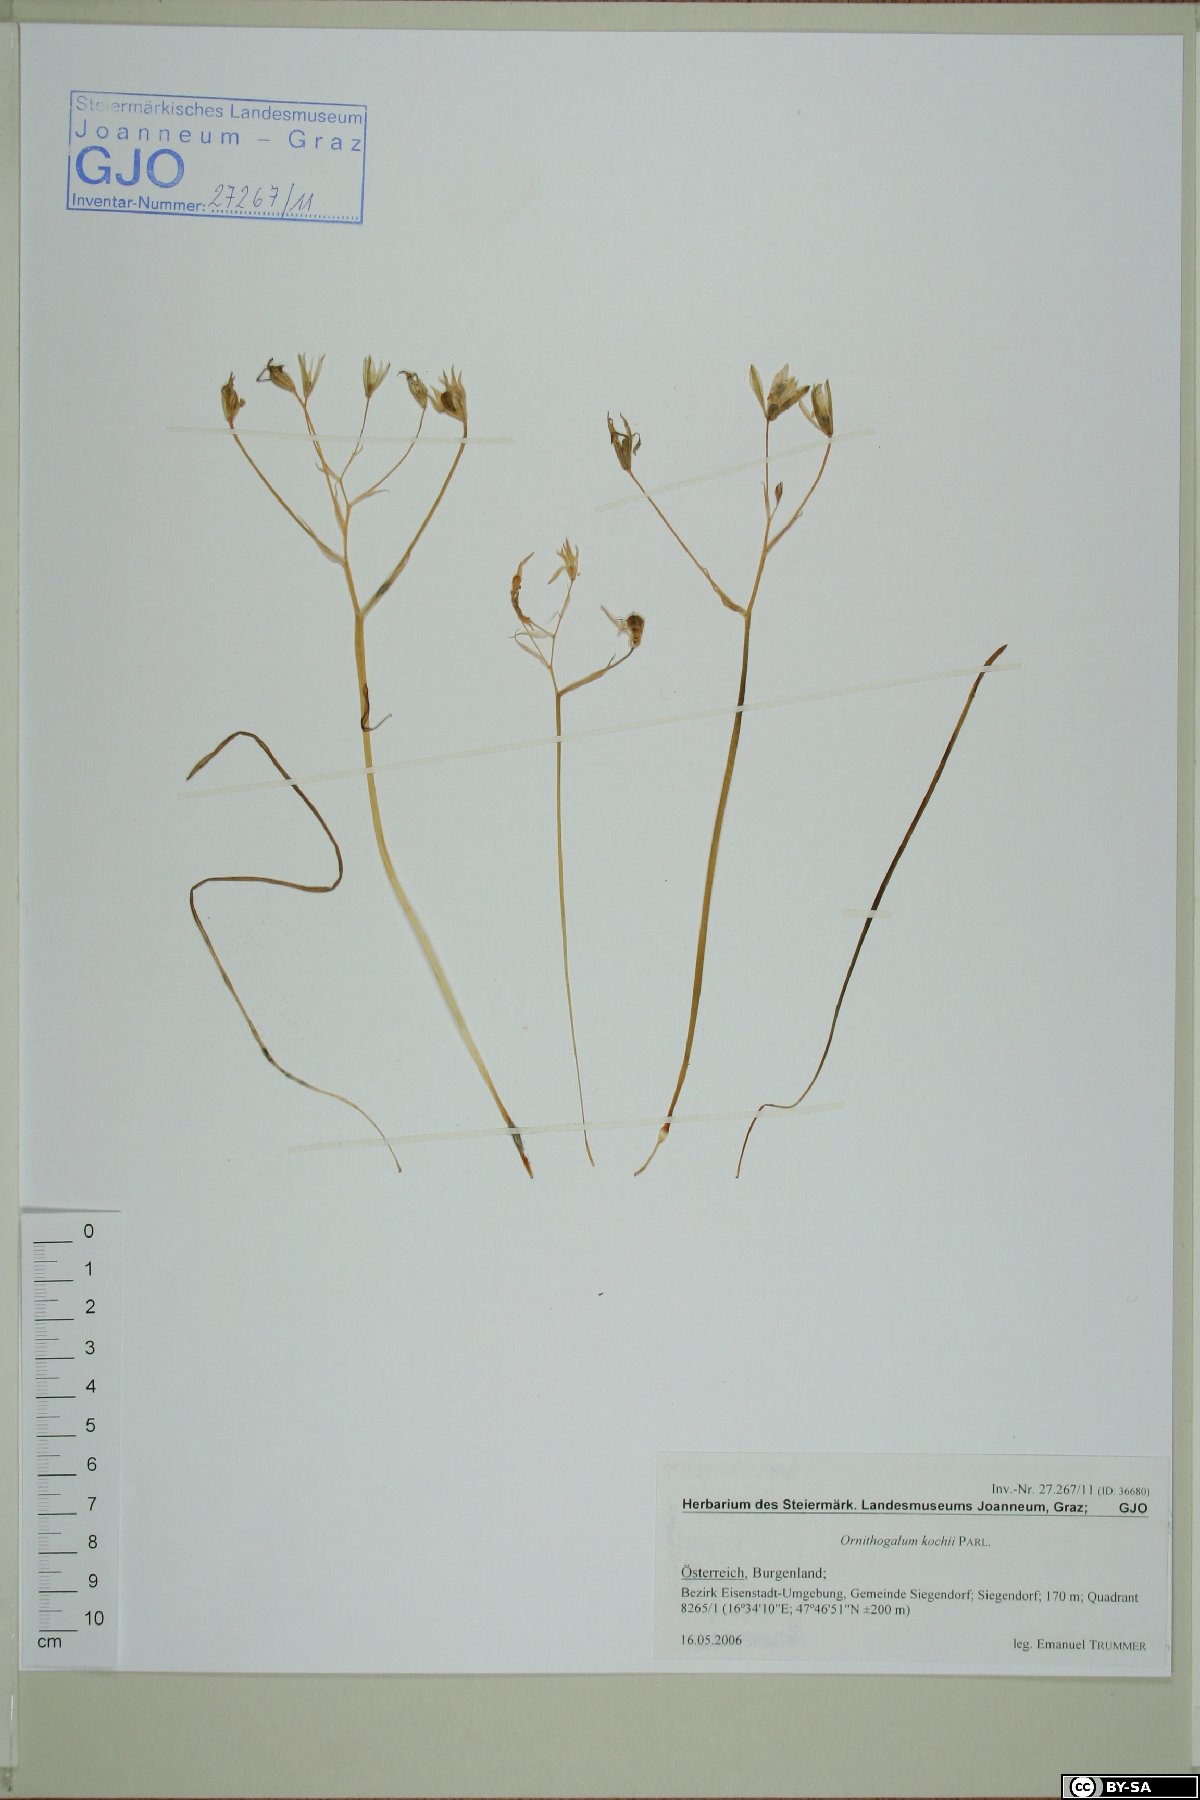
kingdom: Plantae
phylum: Tracheophyta
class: Liliopsida
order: Asparagales
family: Asparagaceae
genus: Ornithogalum
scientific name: Ornithogalum orthophyllum
